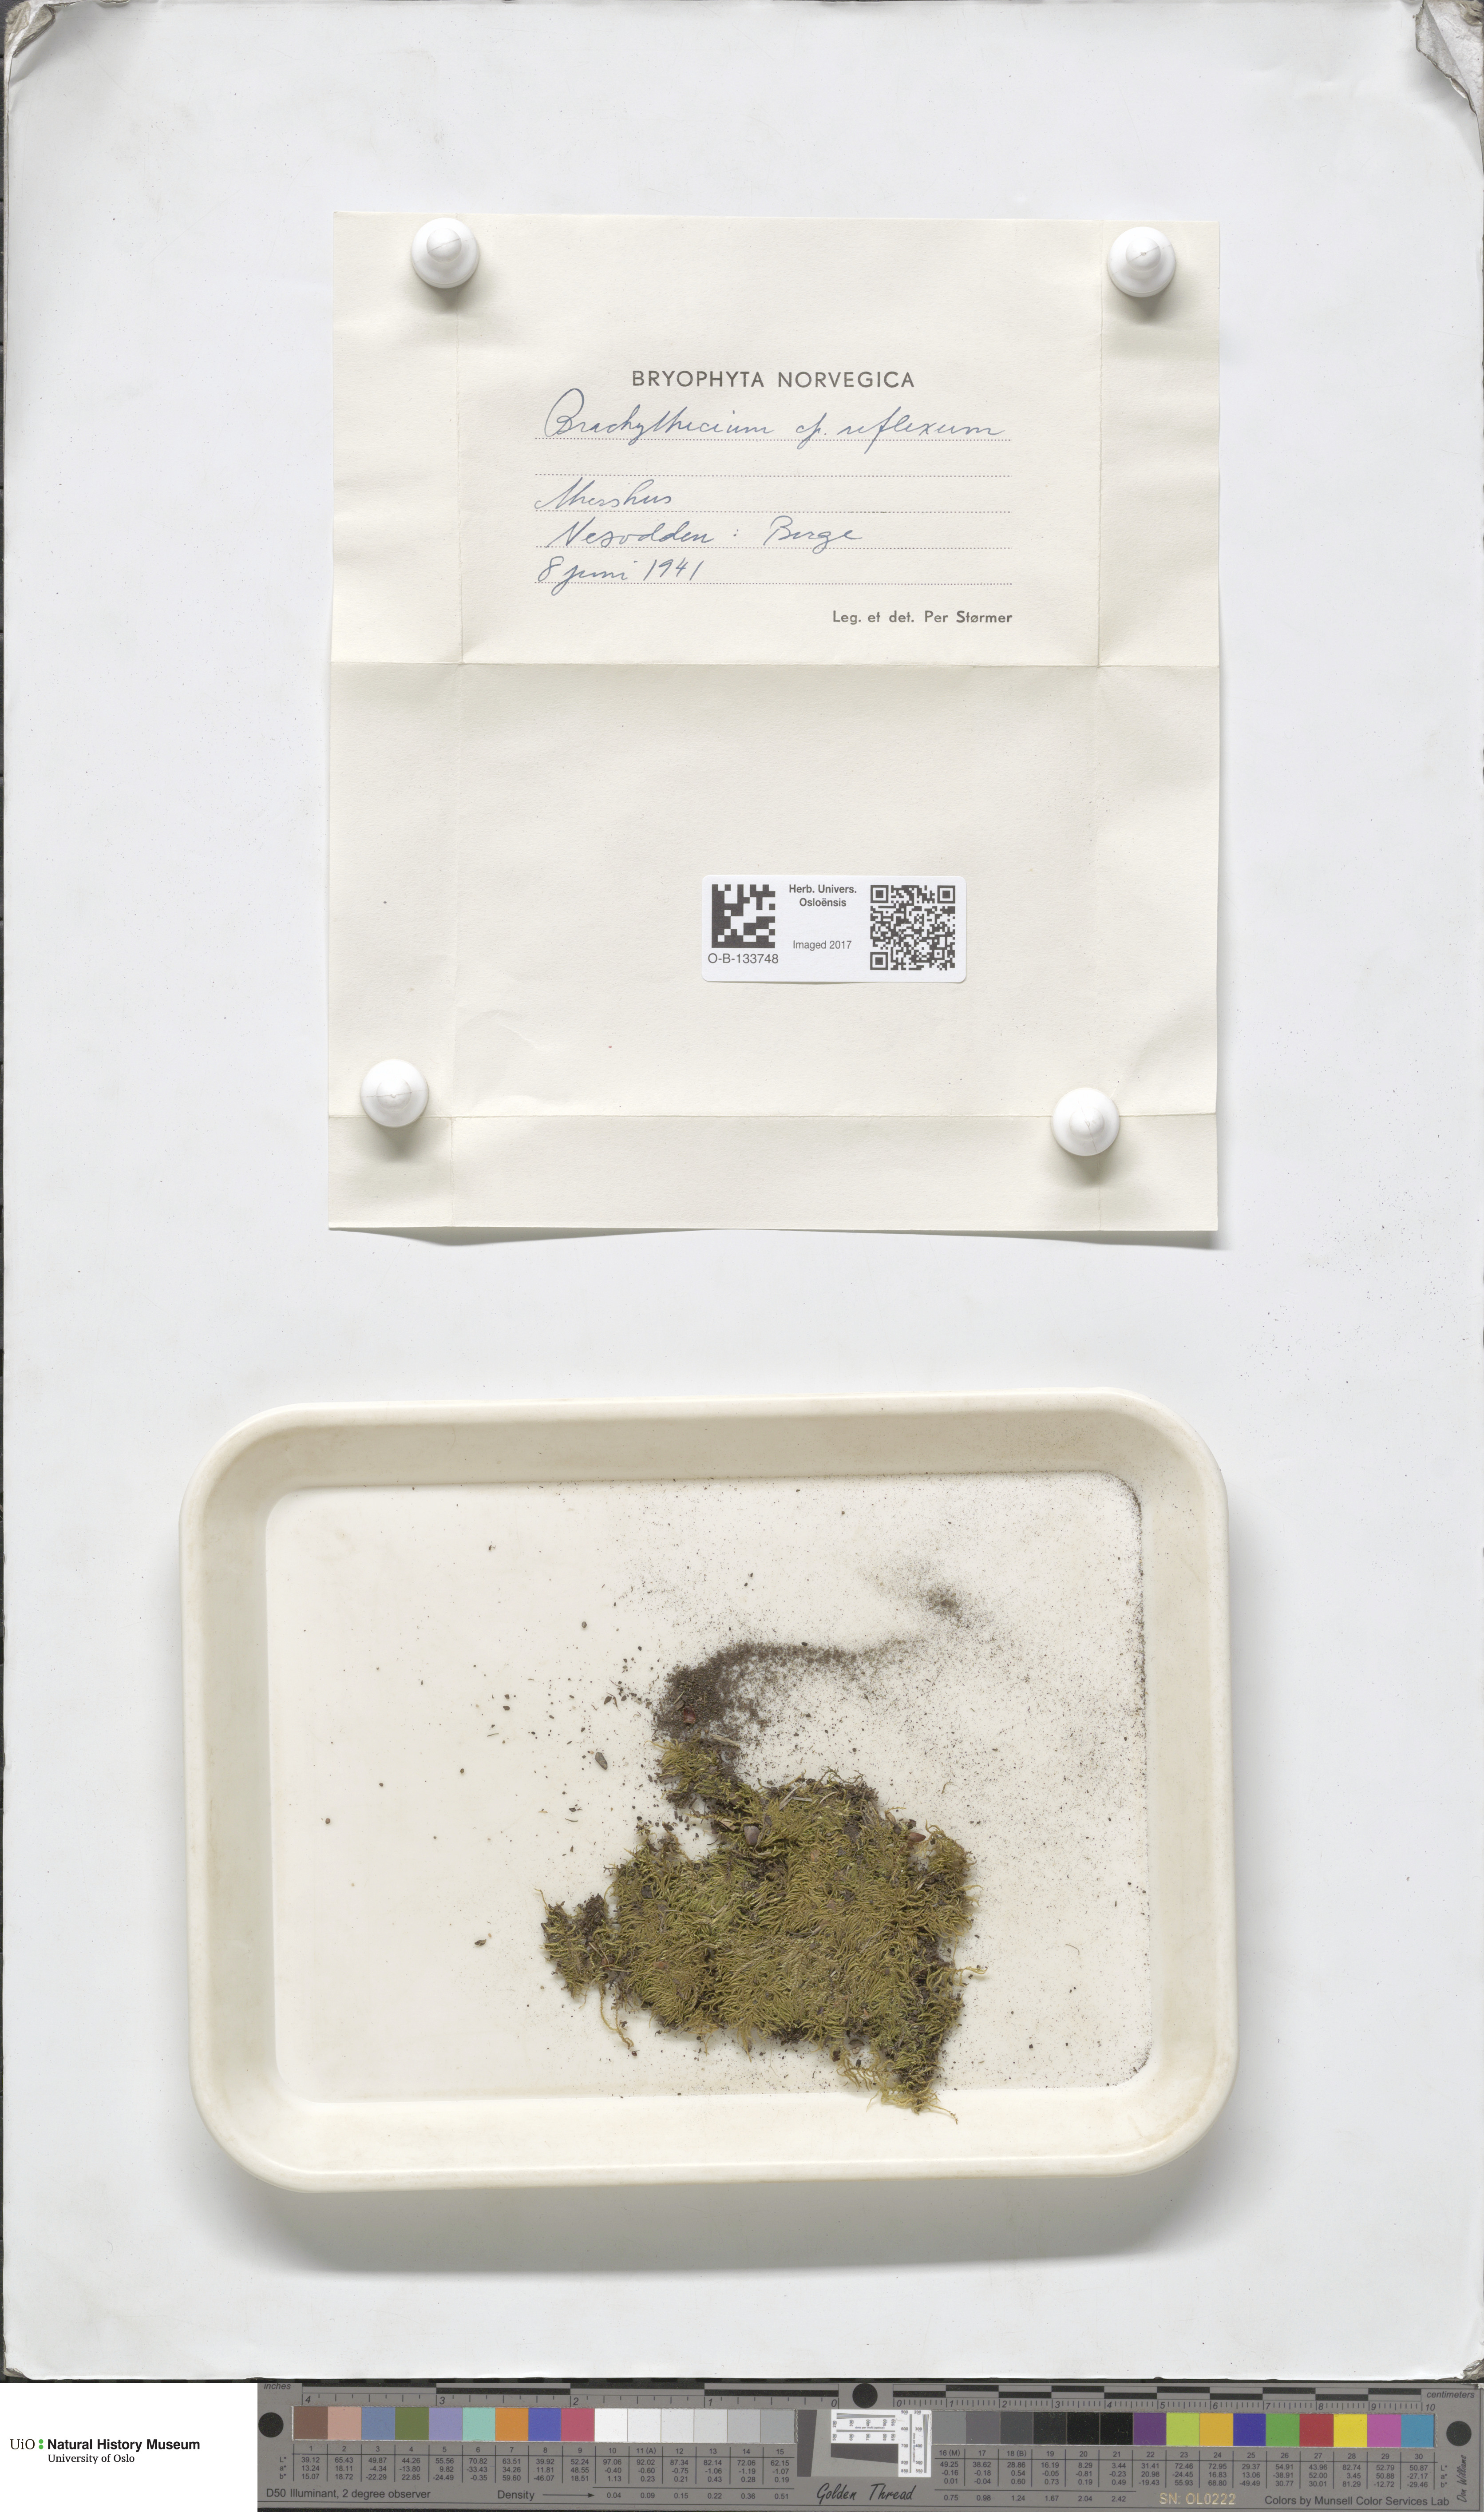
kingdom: Plantae
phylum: Bryophyta
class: Bryopsida
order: Hypnales
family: Brachytheciaceae
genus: Sciuro-hypnum
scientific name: Sciuro-hypnum reflexum
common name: Reflexed feather-moss
